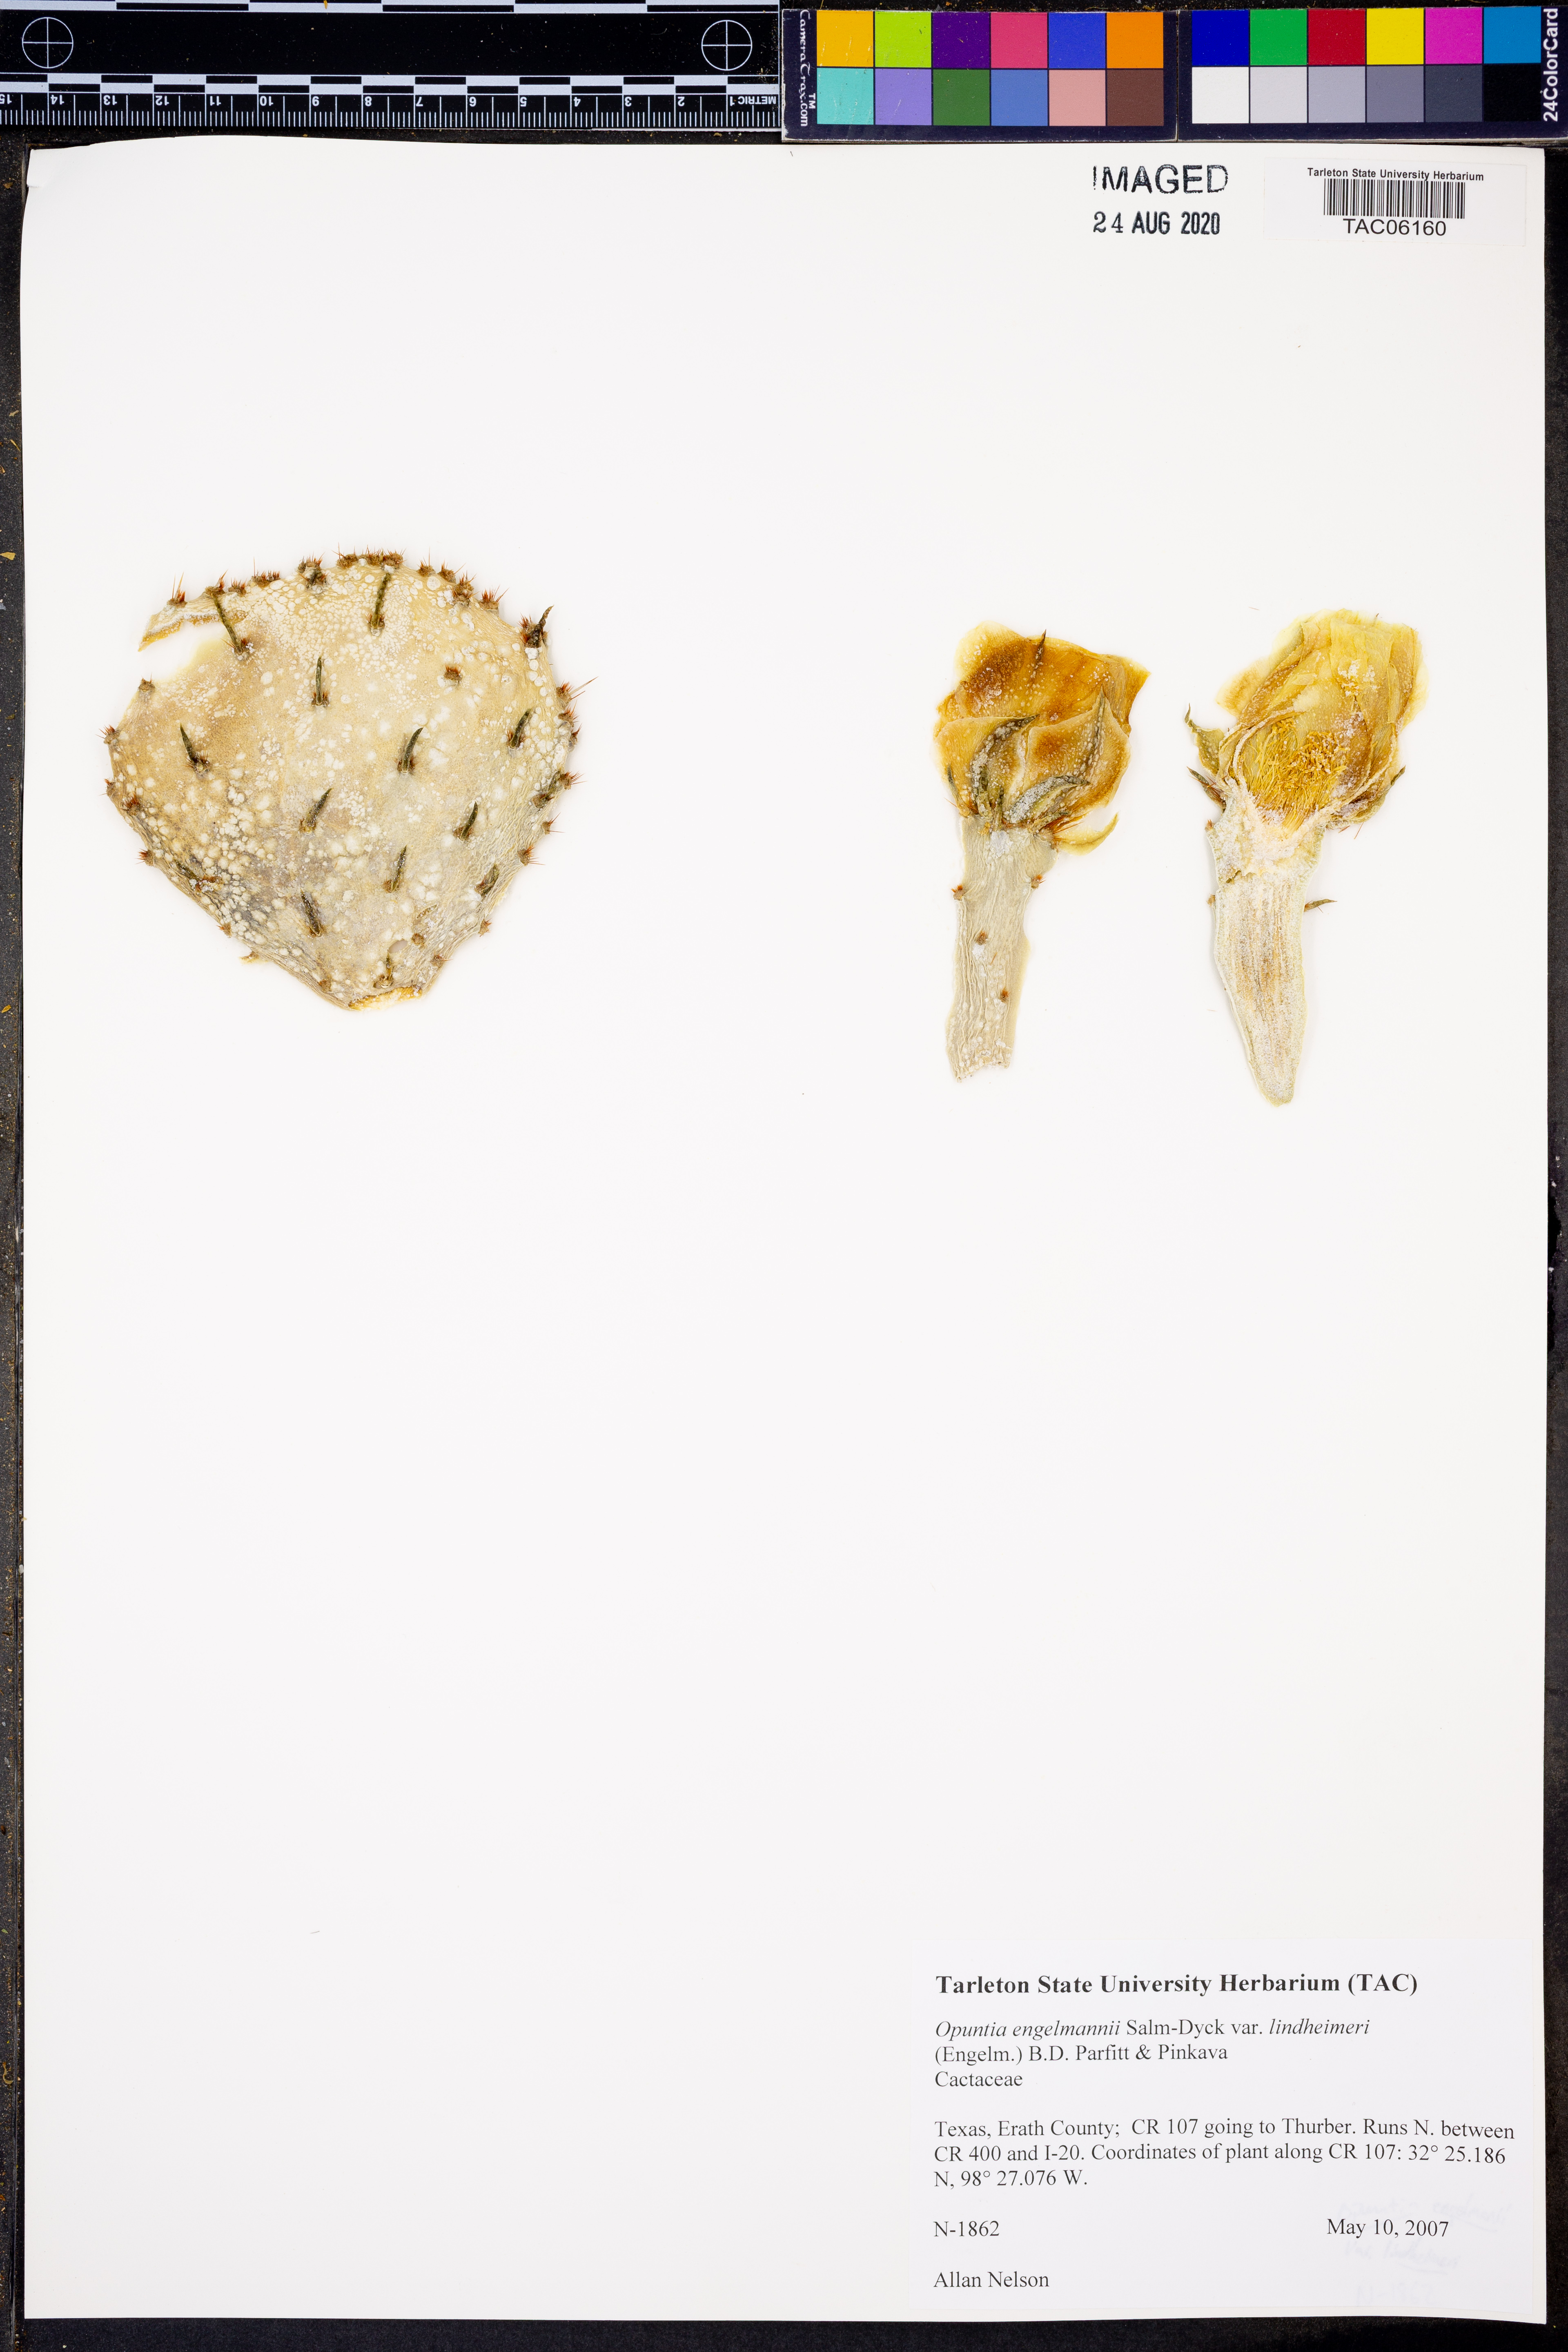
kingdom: Plantae
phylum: Tracheophyta
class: Magnoliopsida
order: Caryophyllales
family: Cactaceae
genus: Opuntia
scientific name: Opuntia engelmannii
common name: Cactus-apple
